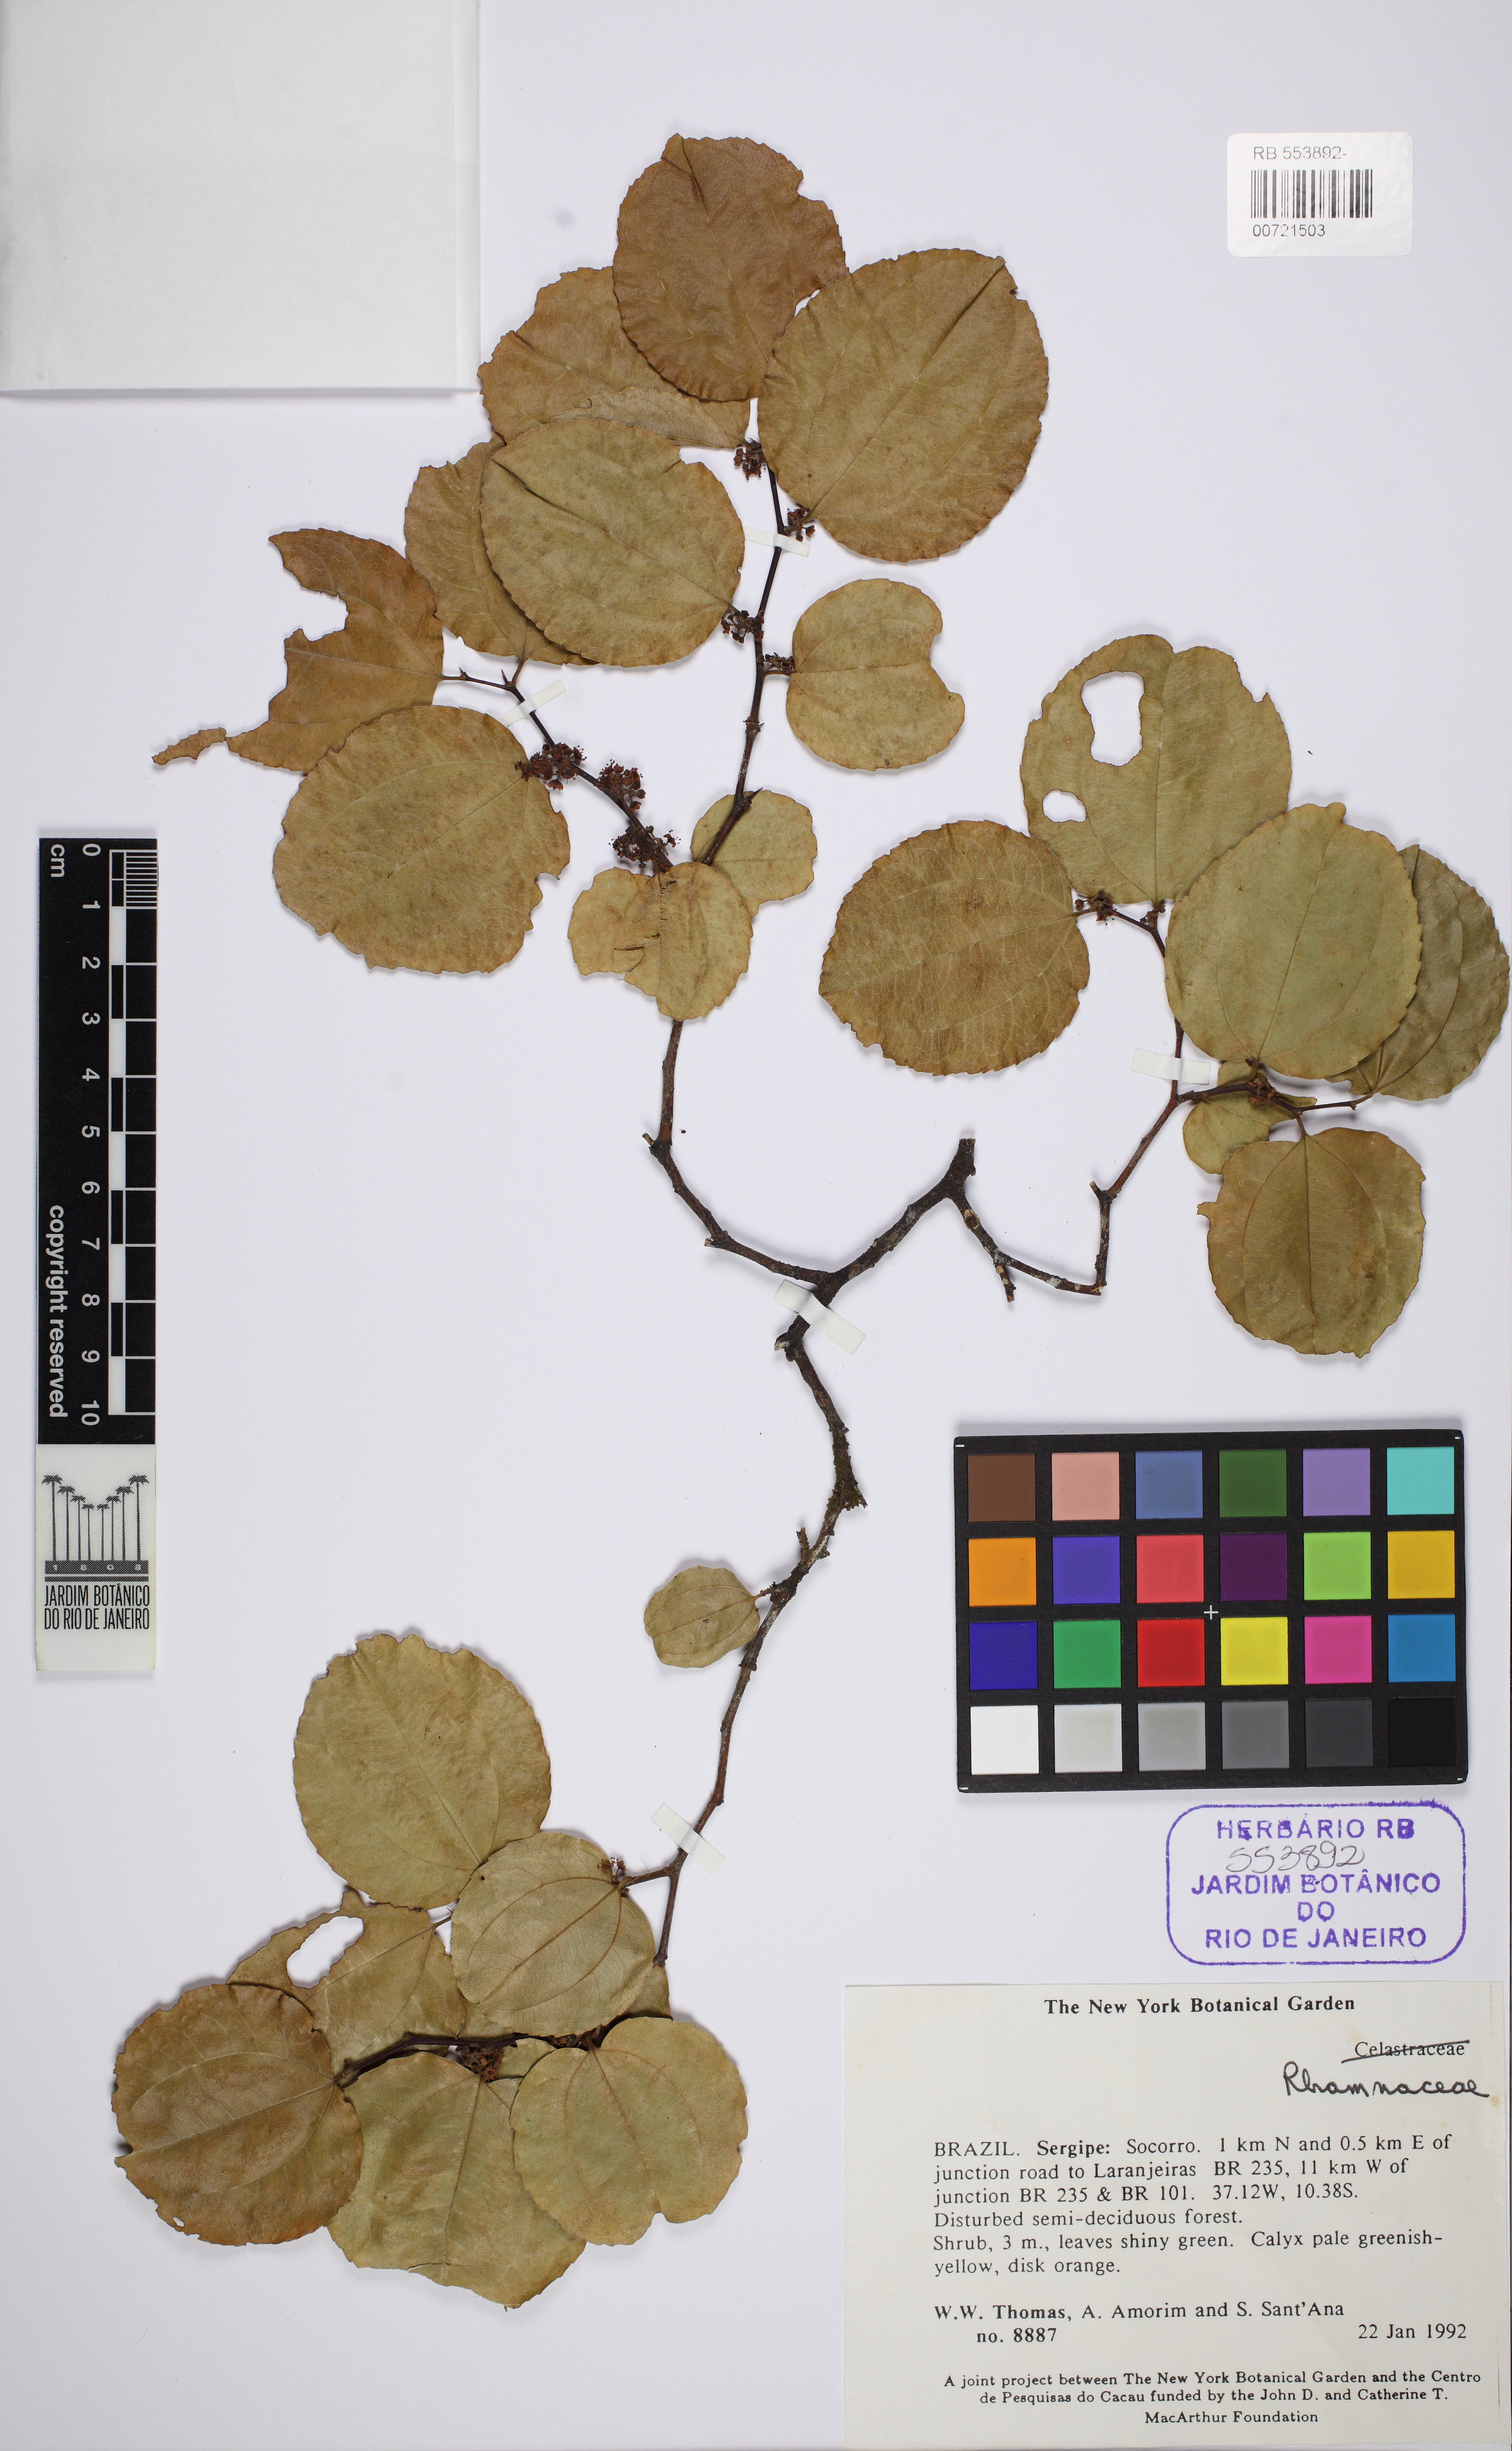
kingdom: Plantae
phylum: Tracheophyta
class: Magnoliopsida
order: Rosales
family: Rhamnaceae
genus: Sarcomphalus
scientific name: Sarcomphalus
